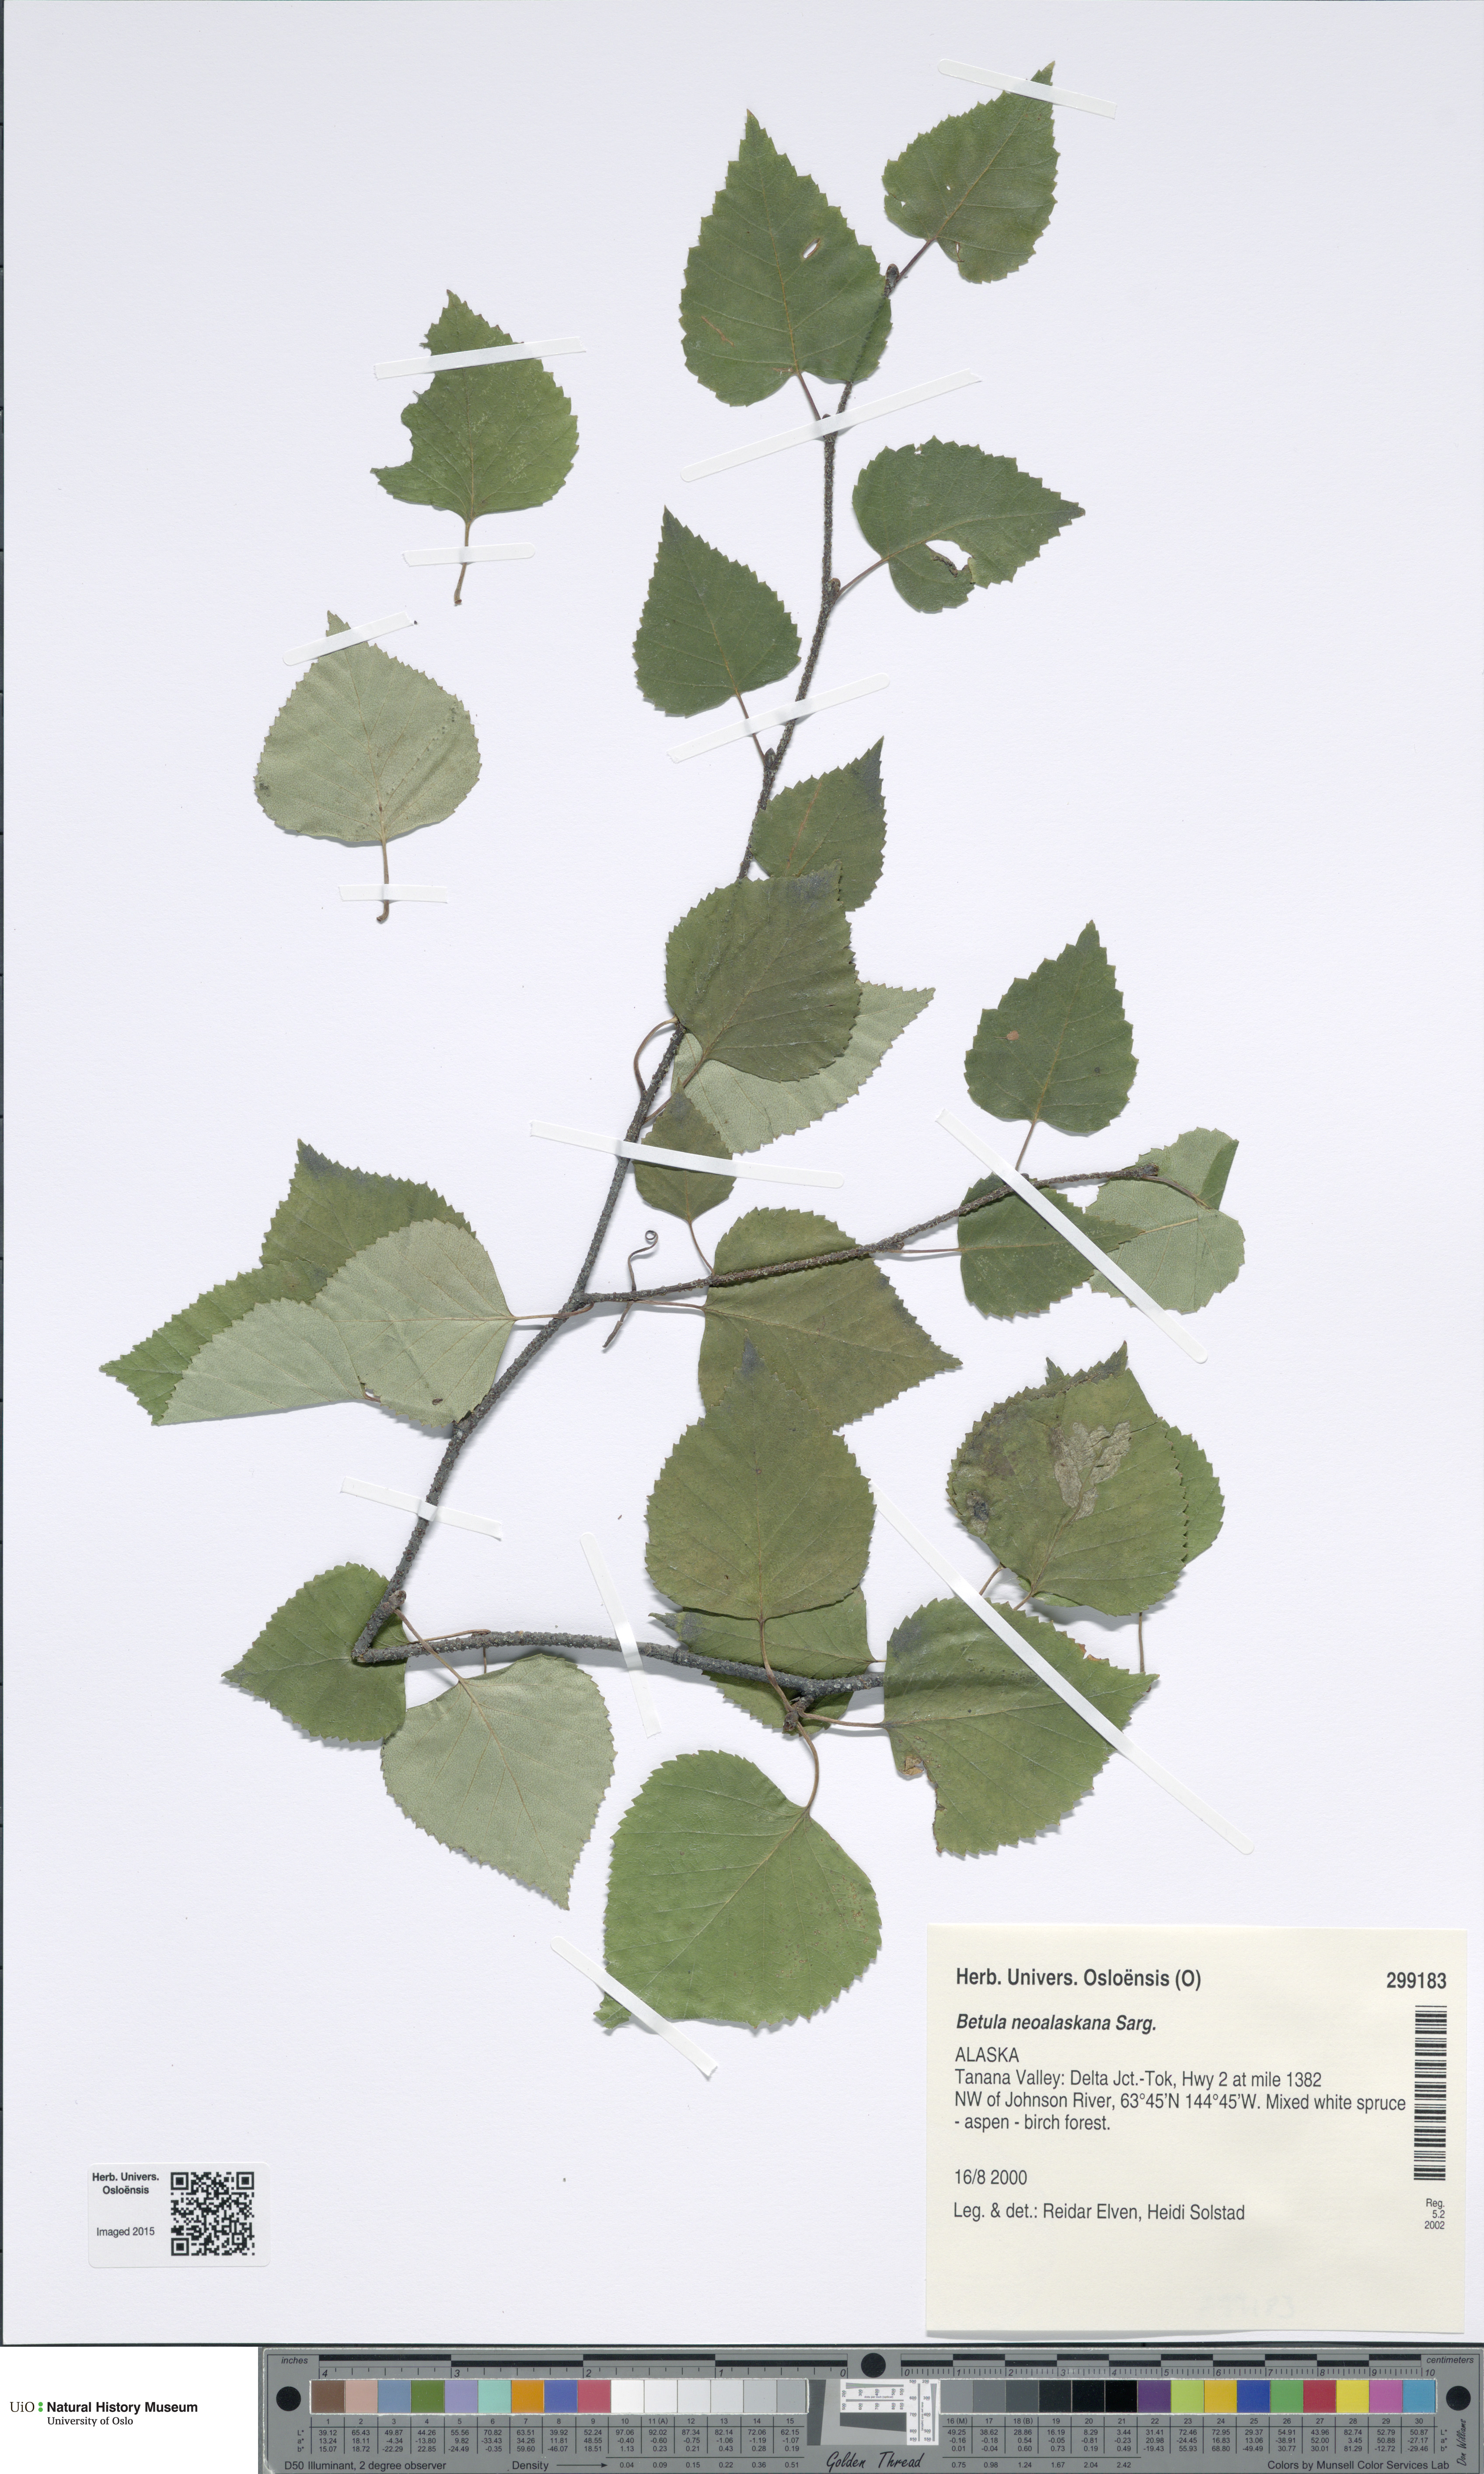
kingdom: Plantae
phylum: Tracheophyta
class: Magnoliopsida
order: Fagales
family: Betulaceae
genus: Betula
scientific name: Betula pendula
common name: Silver birch
